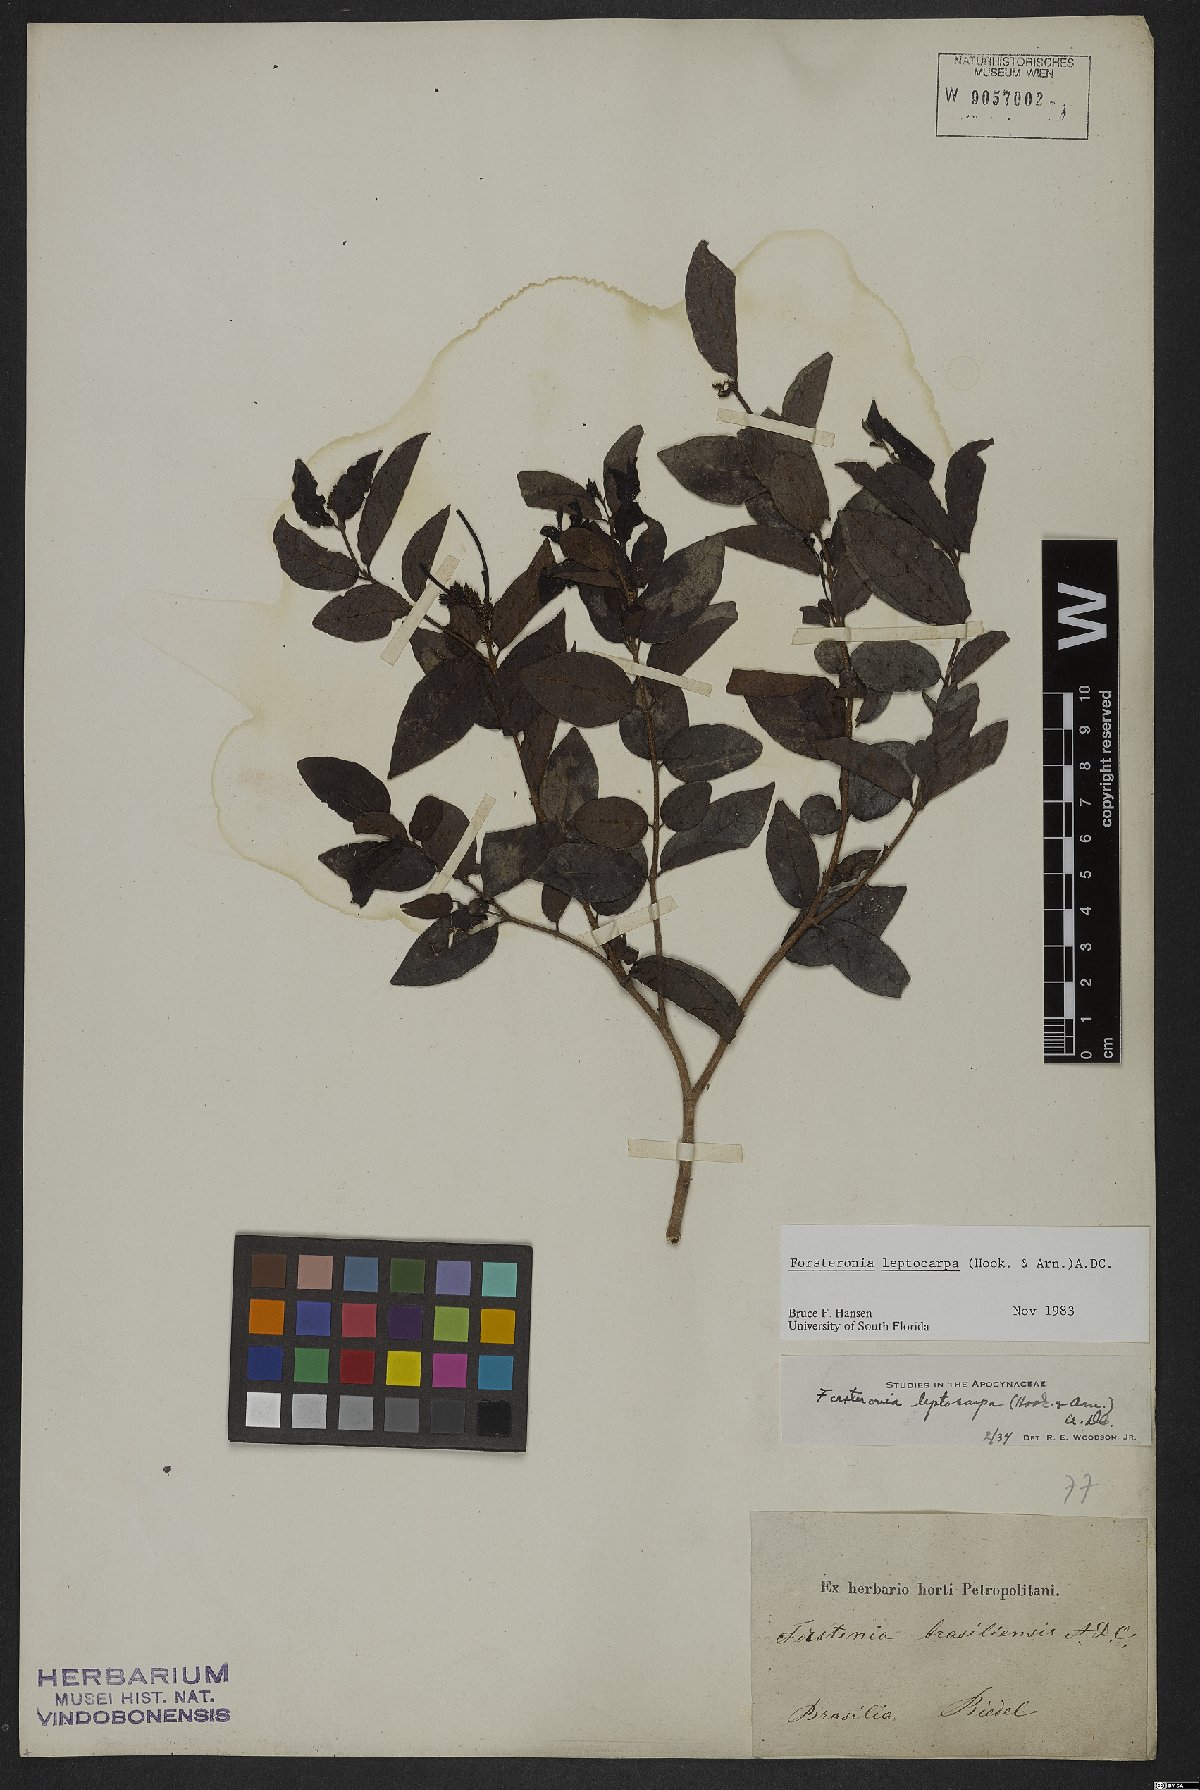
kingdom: Plantae
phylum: Tracheophyta
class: Magnoliopsida
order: Gentianales
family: Apocynaceae
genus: Forsteronia
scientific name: Forsteronia leptocarpa
